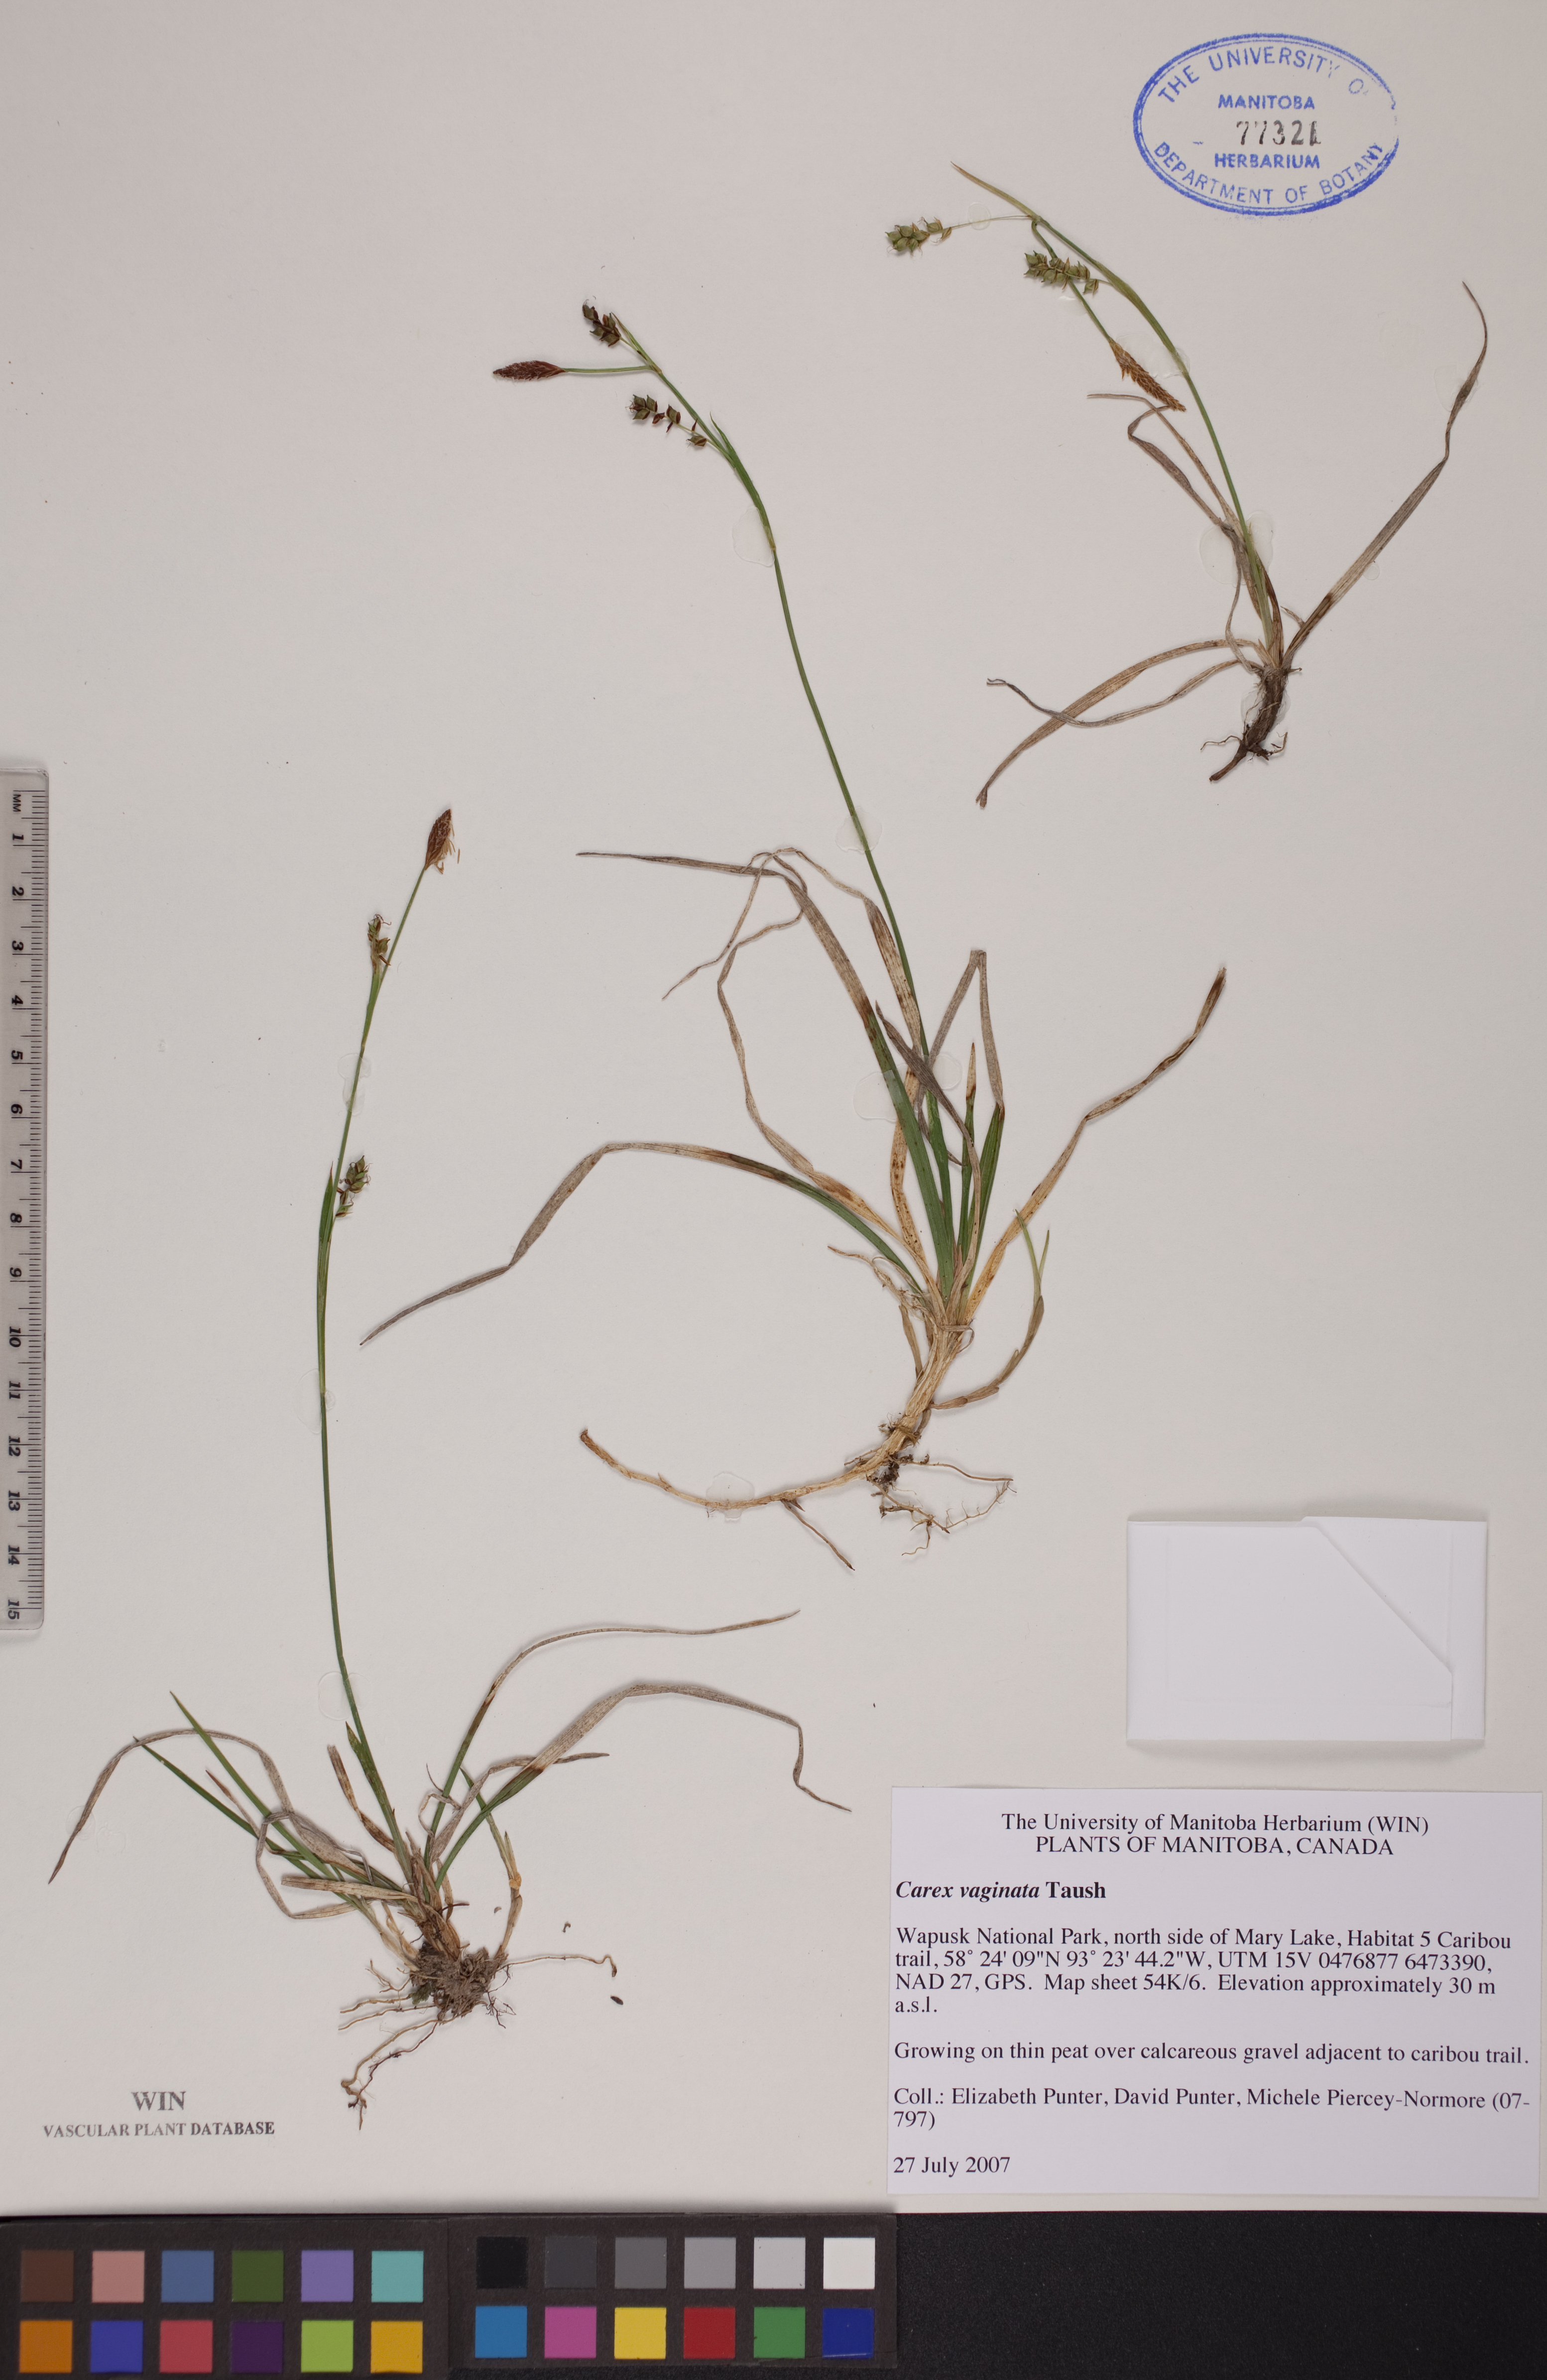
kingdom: Plantae
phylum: Tracheophyta
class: Liliopsida
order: Poales
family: Cyperaceae
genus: Carex
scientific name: Carex vaginata
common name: Sheathed sedge
